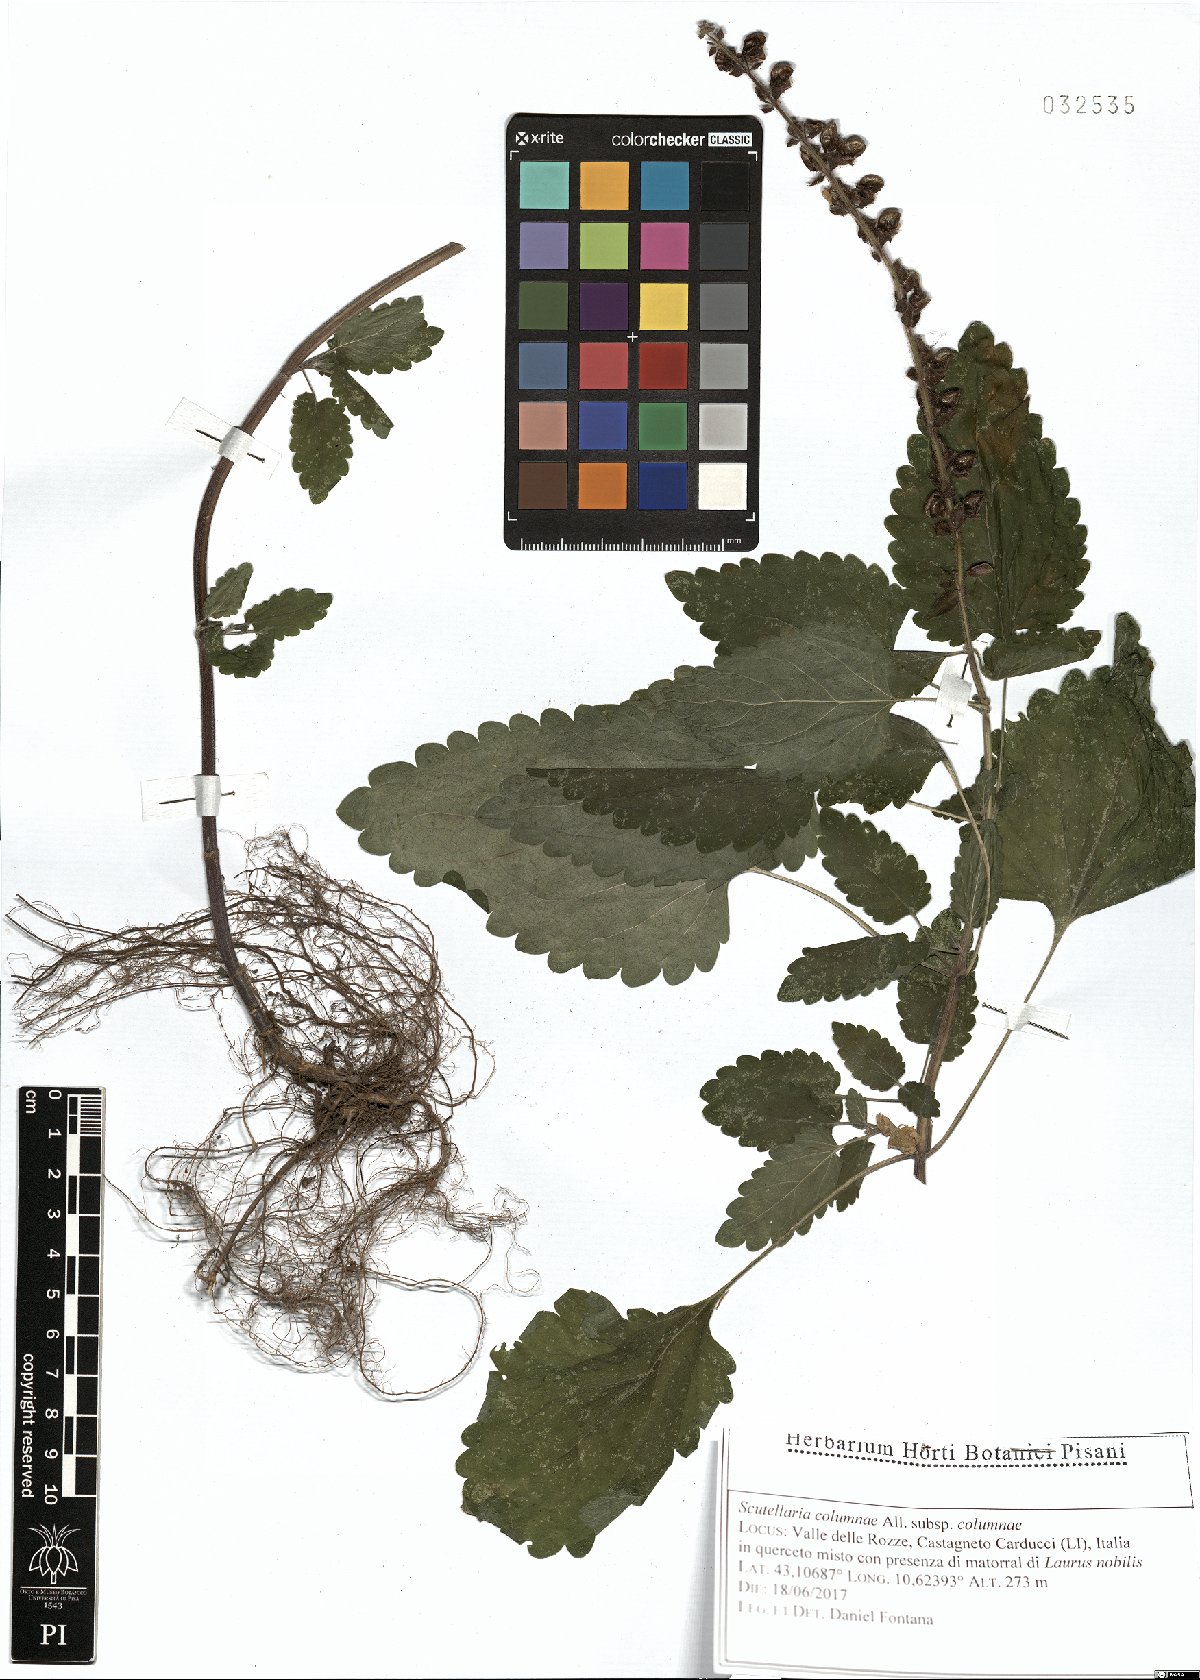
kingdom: Plantae
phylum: Tracheophyta
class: Magnoliopsida
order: Lamiales
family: Lamiaceae
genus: Scutellaria
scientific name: Scutellaria columnae
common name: Large skullcap
